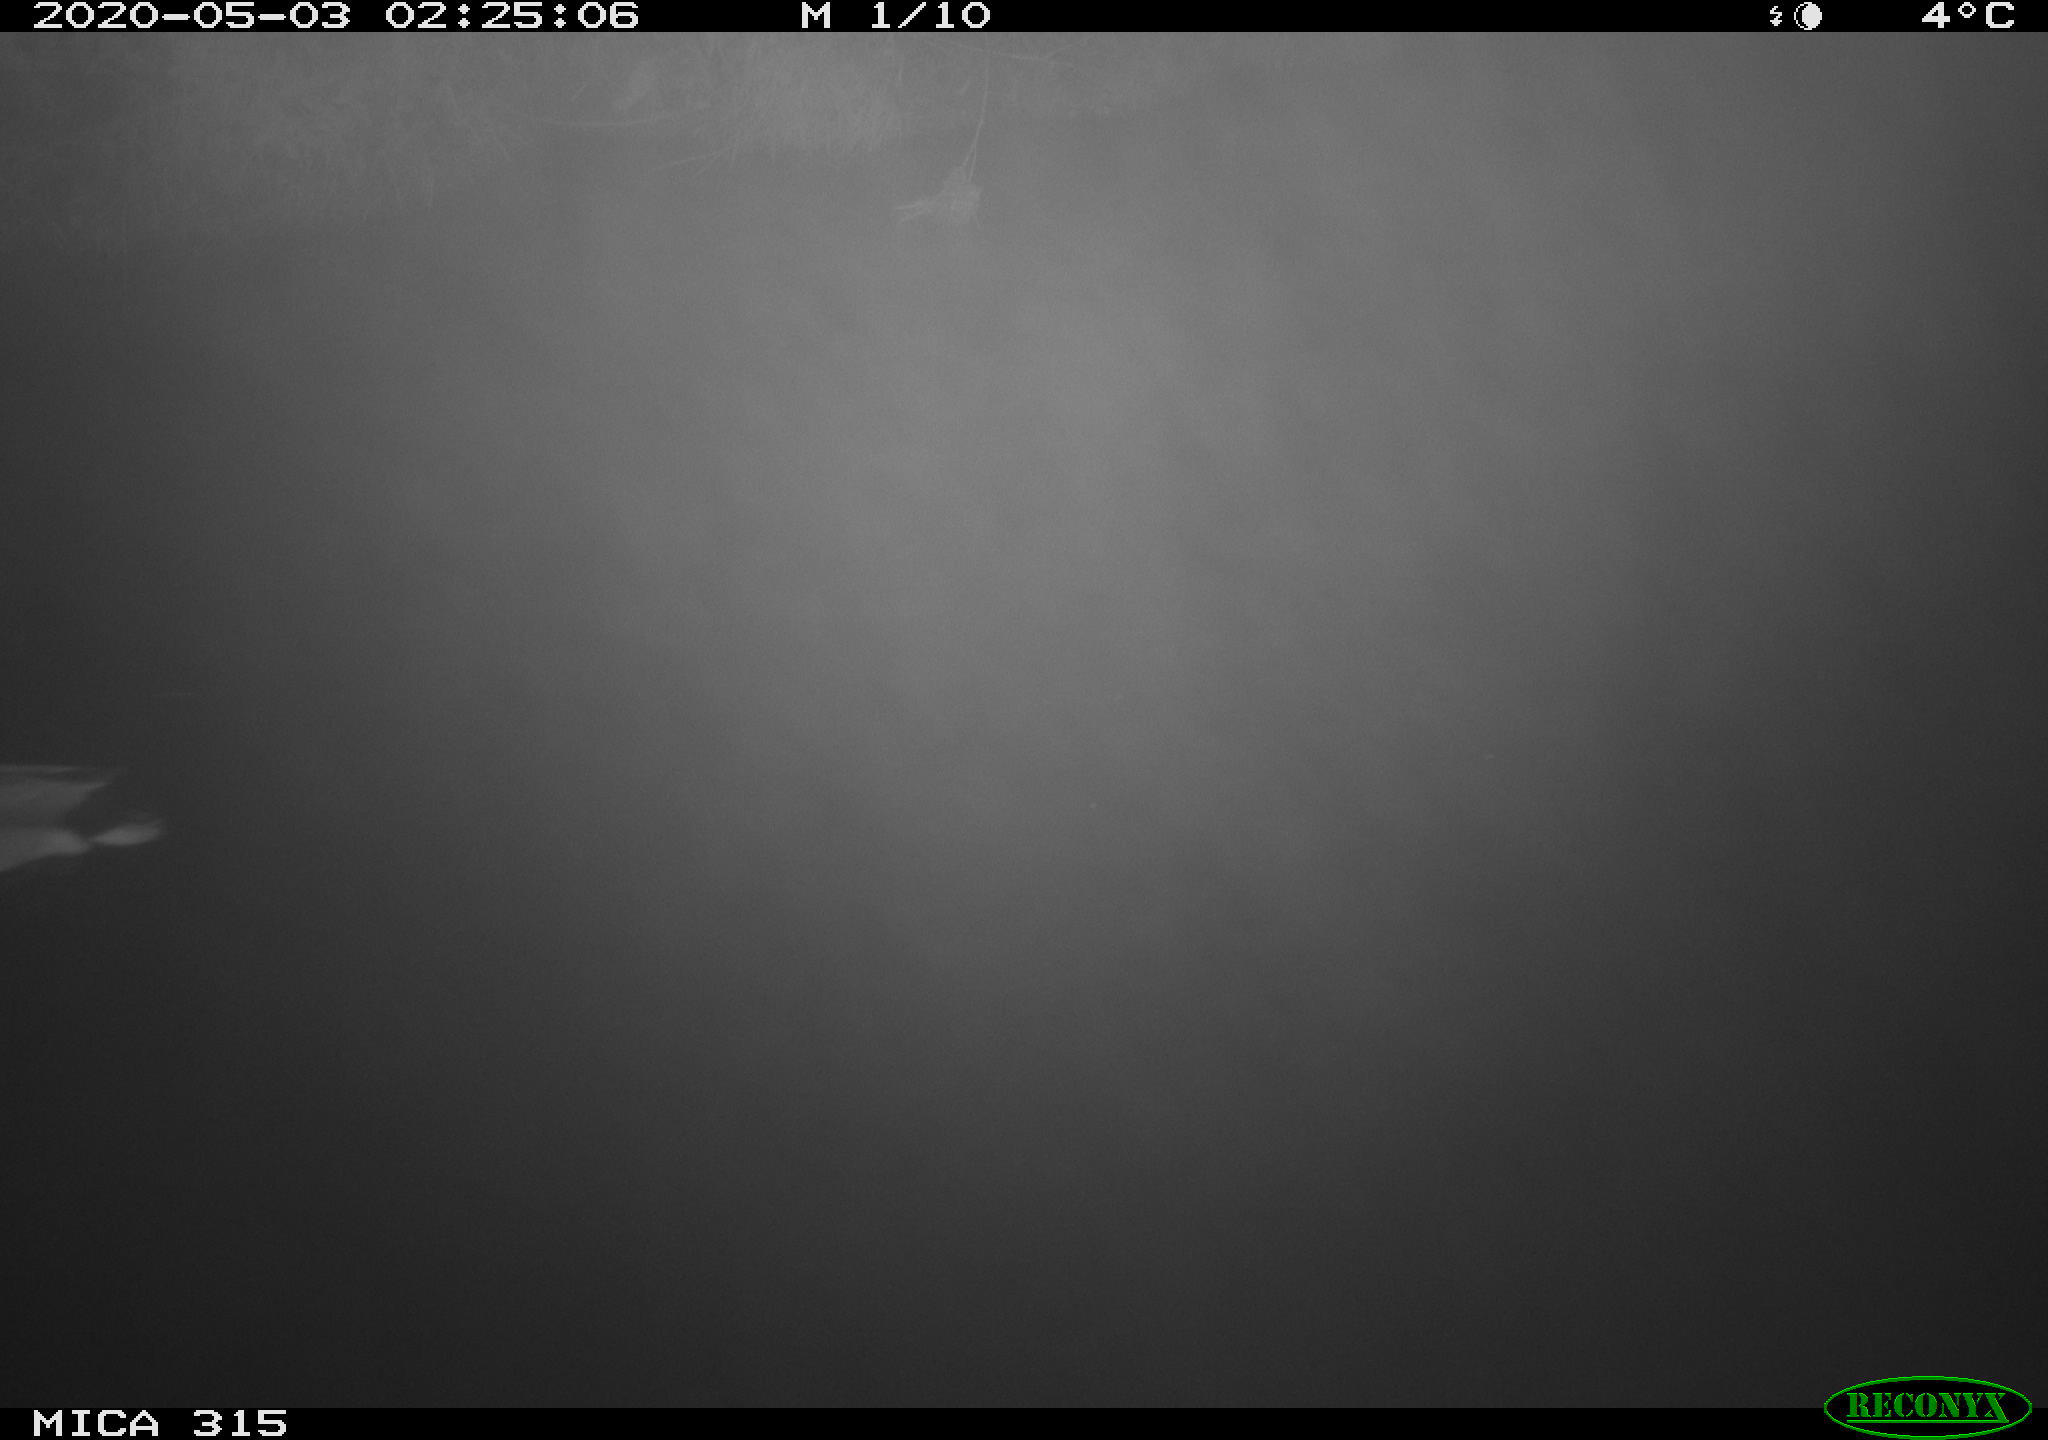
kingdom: Animalia
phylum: Chordata
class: Aves
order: Anseriformes
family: Anatidae
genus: Anas
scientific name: Anas platyrhynchos
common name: Mallard
